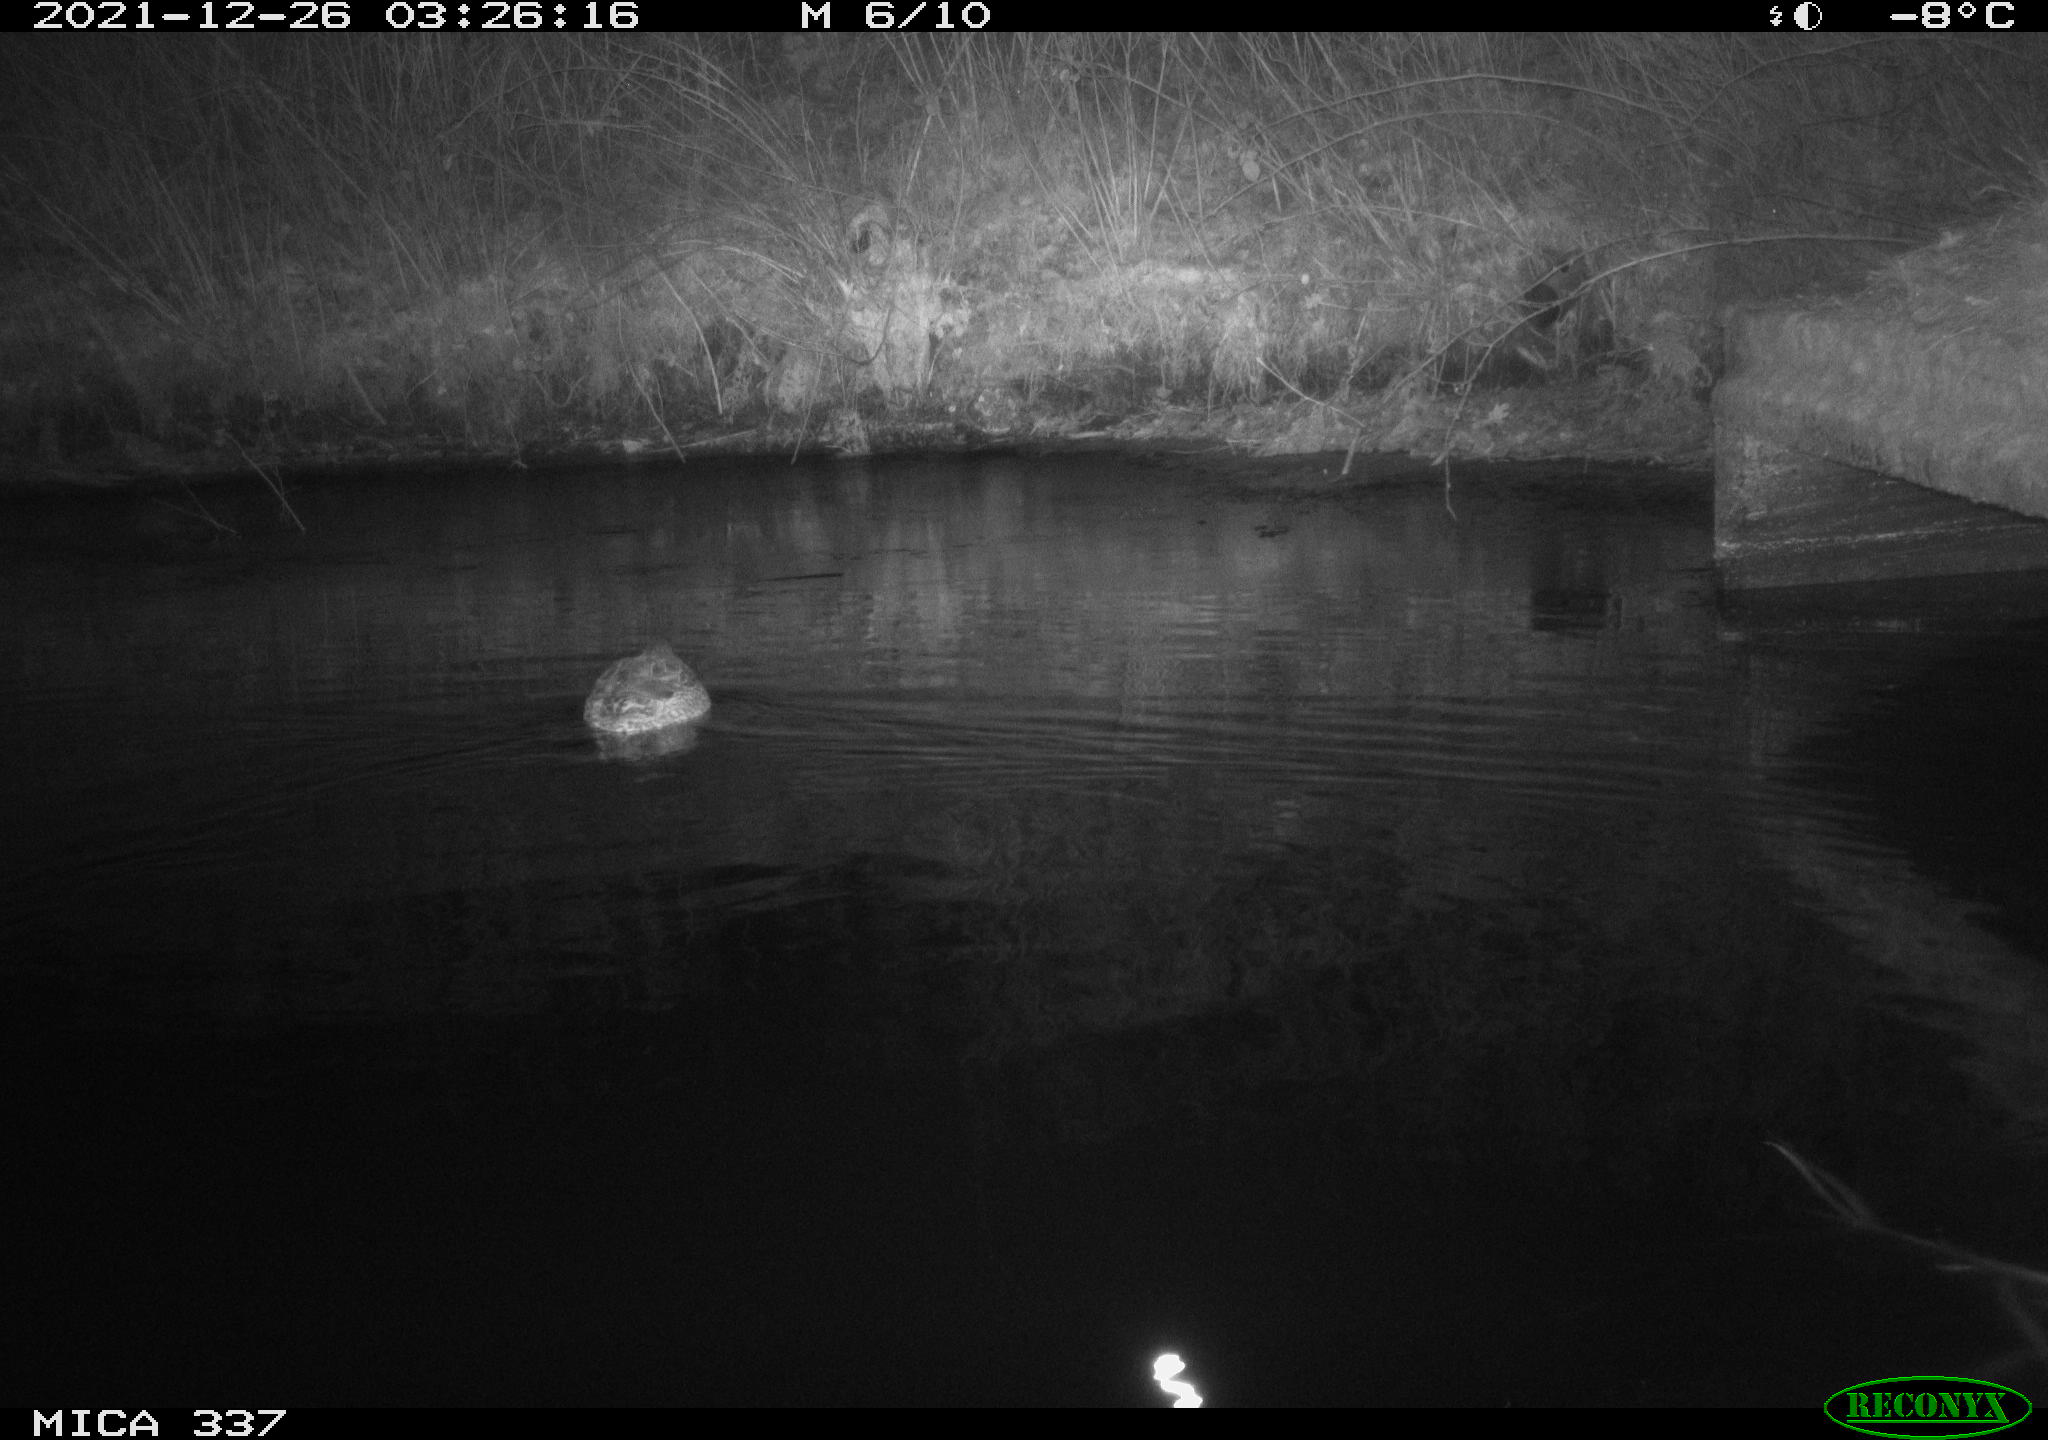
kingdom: Animalia
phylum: Chordata
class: Aves
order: Anseriformes
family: Anatidae
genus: Anas
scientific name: Anas platyrhynchos
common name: Mallard
